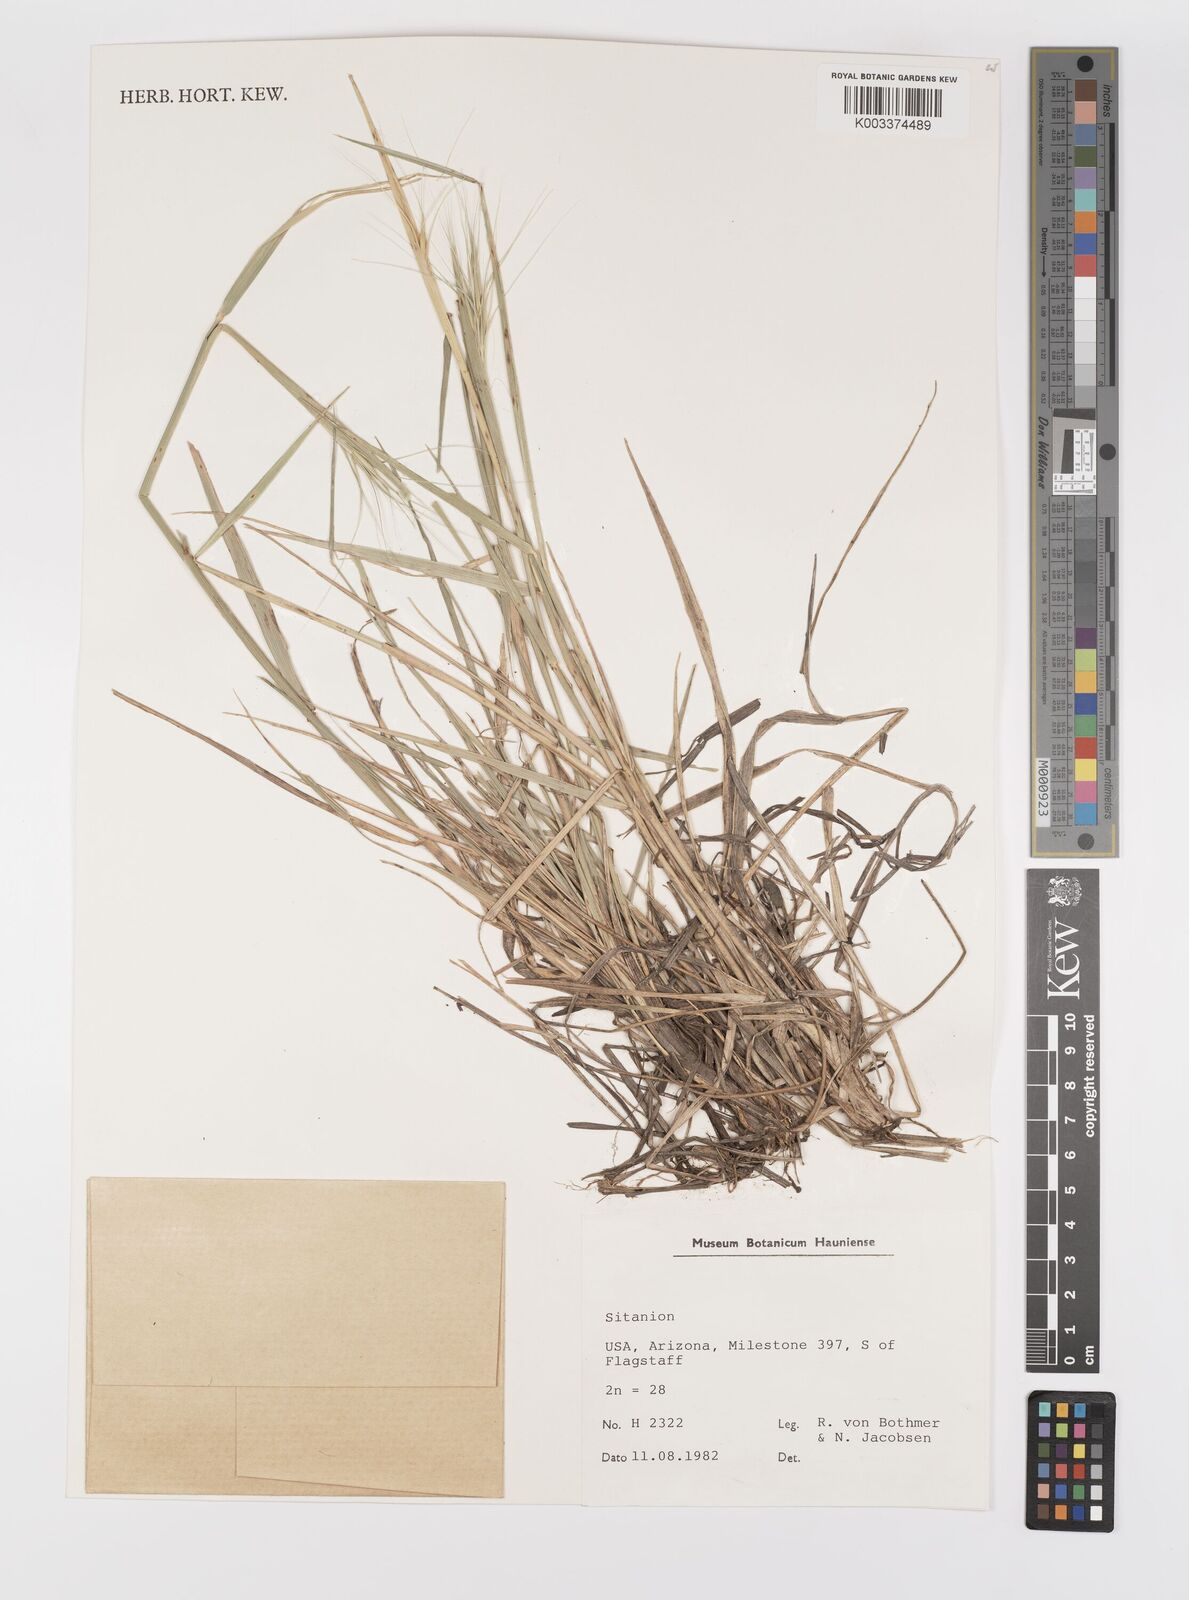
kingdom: Plantae
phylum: Tracheophyta
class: Liliopsida
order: Poales
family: Poaceae
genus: Elymus
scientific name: Elymus elymoides
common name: Bottlebrush squirreltail
